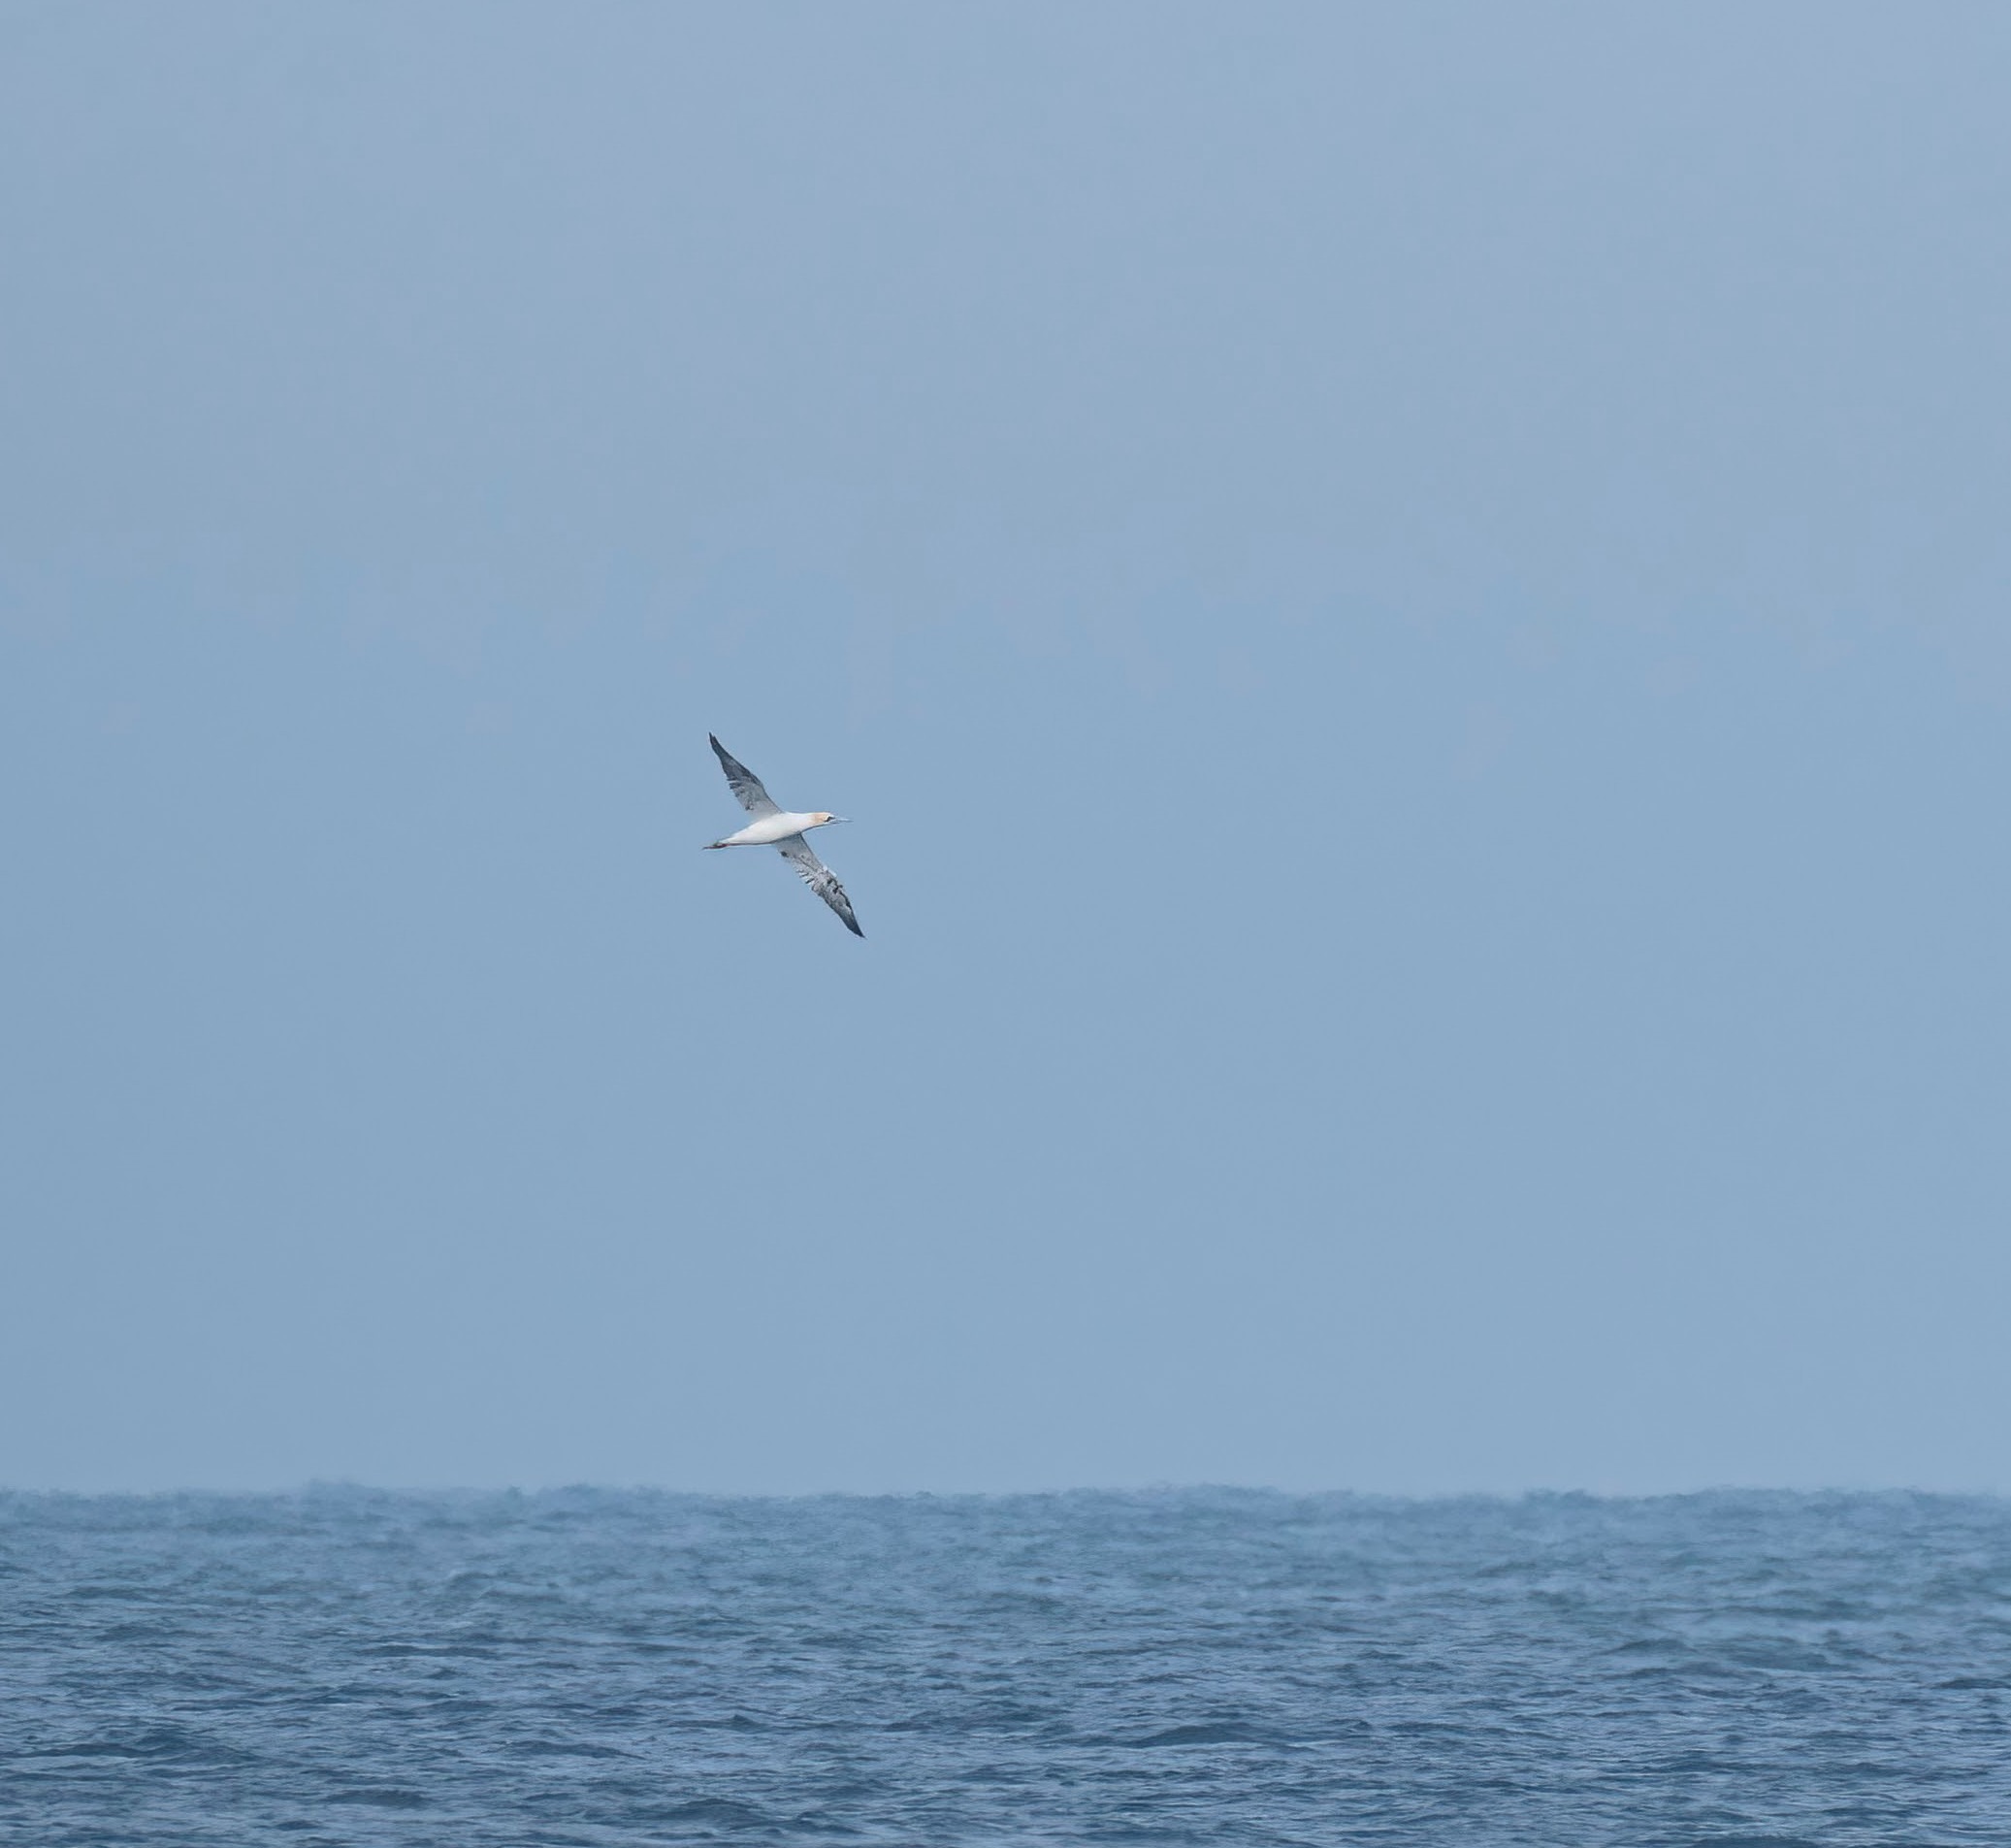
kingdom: Animalia
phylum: Chordata
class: Aves
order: Suliformes
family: Sulidae
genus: Morus
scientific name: Morus bassanus
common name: Sule
